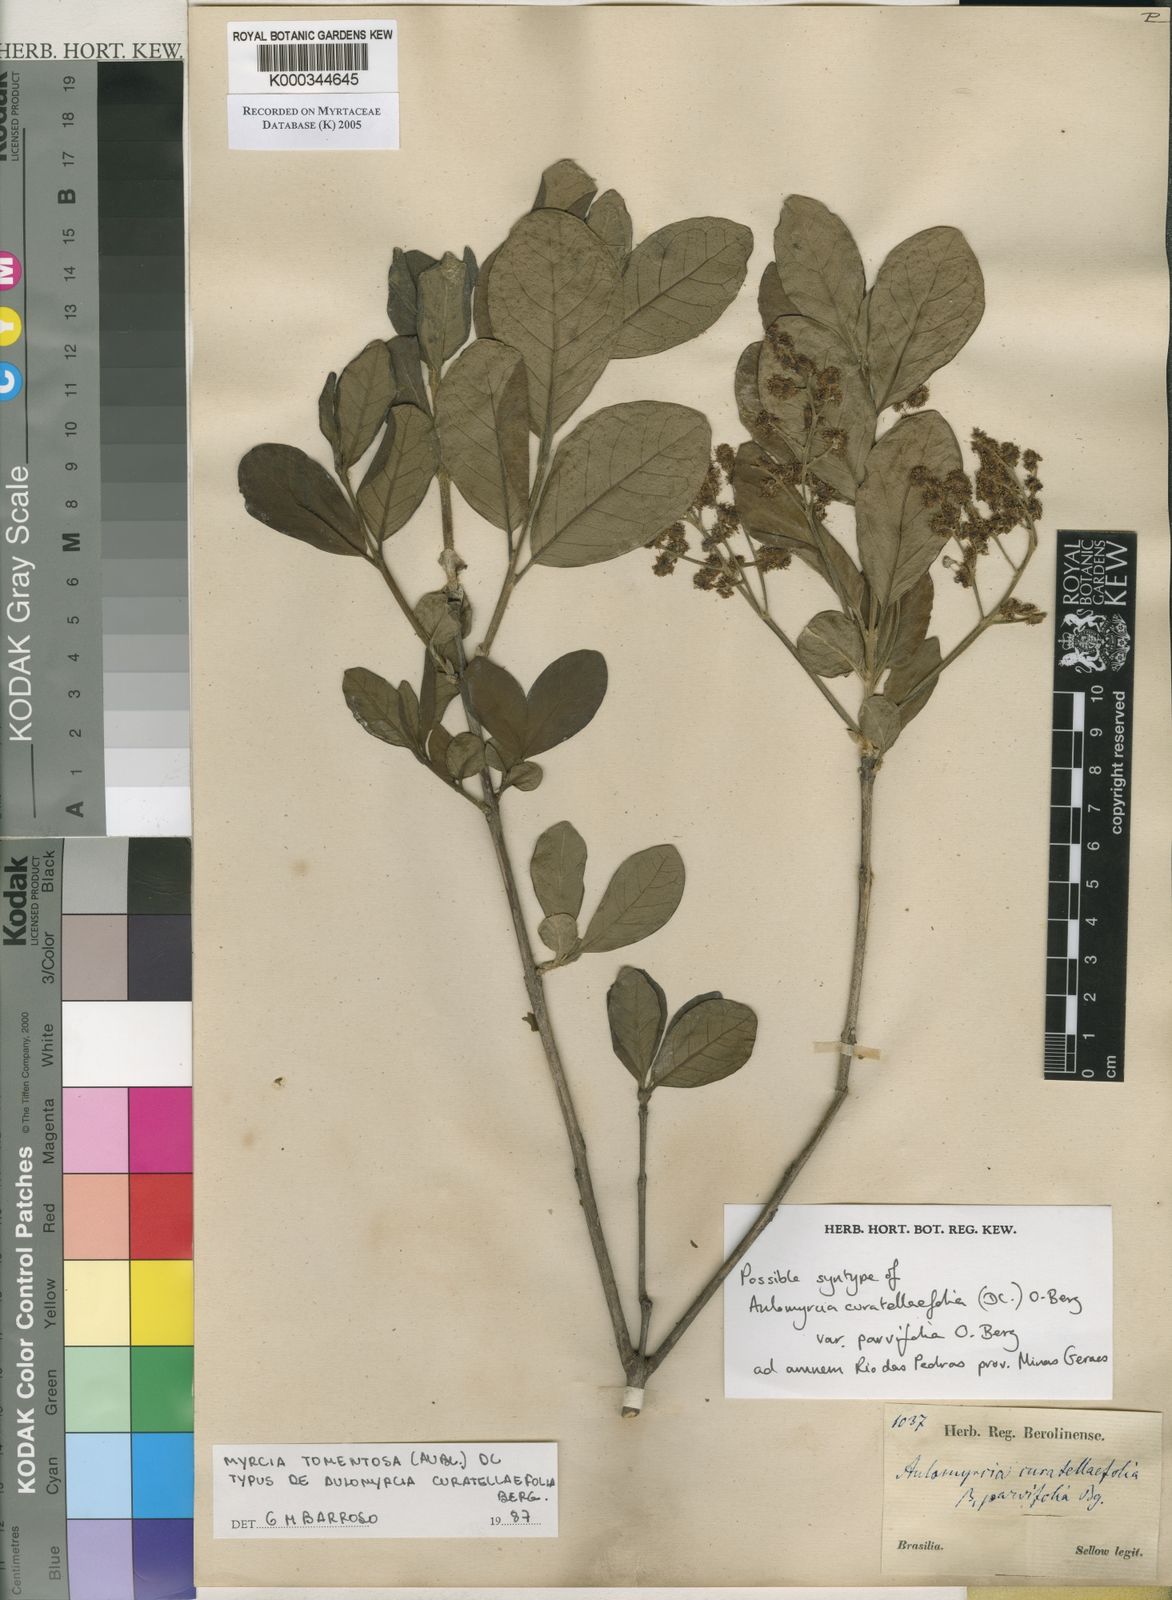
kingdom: Plantae
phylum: Tracheophyta
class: Magnoliopsida
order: Myrtales
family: Myrtaceae
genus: Myrcia
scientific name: Myrcia tomentosa
